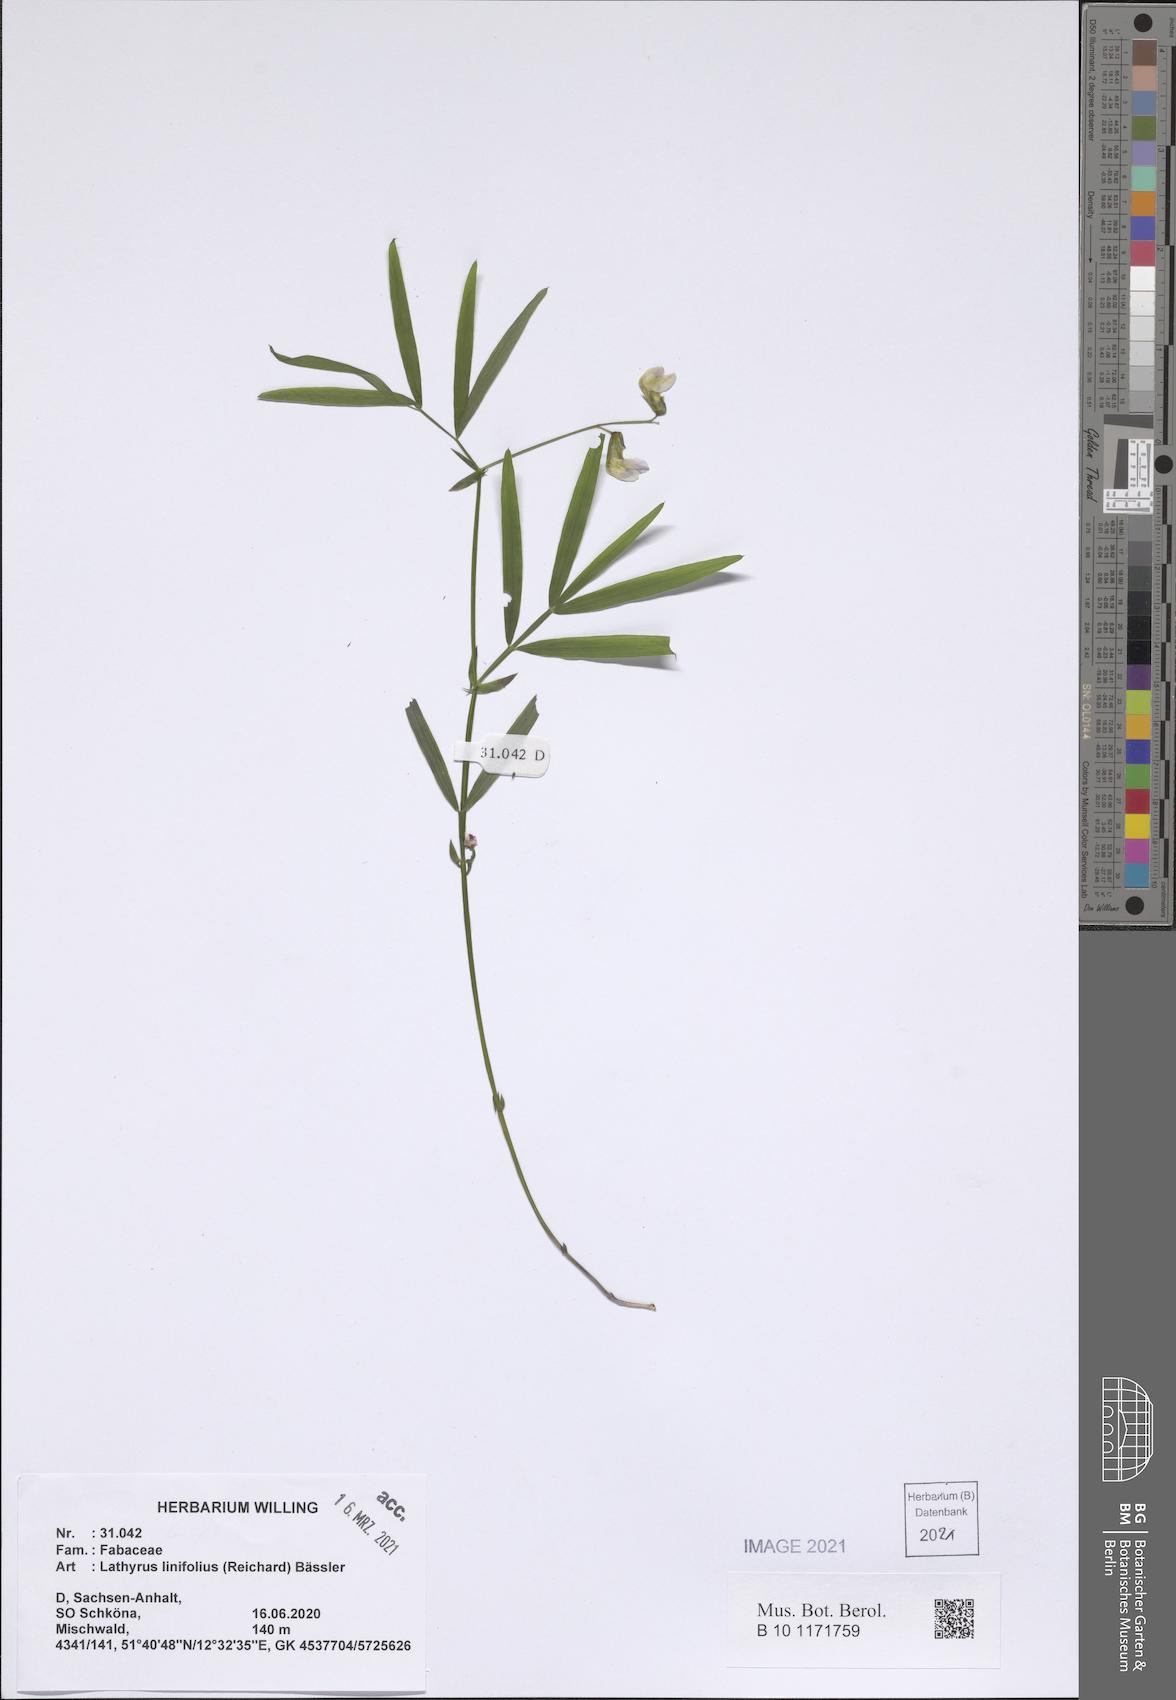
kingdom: Plantae
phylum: Tracheophyta
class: Magnoliopsida
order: Fabales
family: Fabaceae
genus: Lathyrus
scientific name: Lathyrus linifolius
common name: Bitter-vetch
